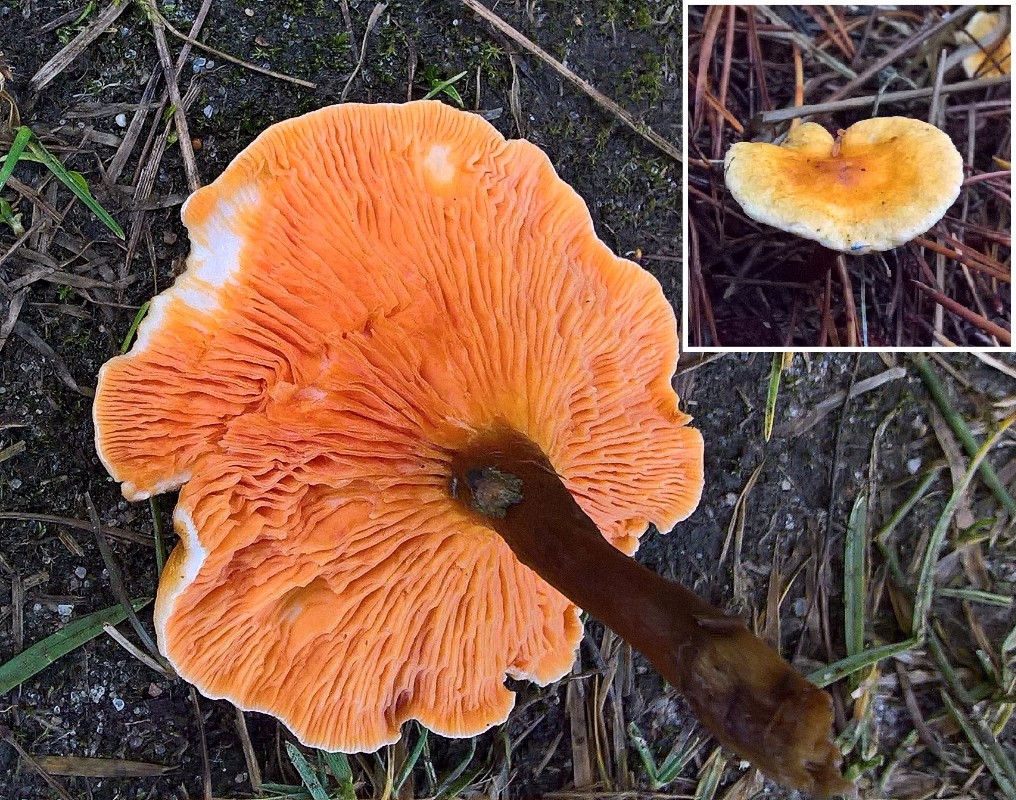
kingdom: Fungi
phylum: Basidiomycota
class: Agaricomycetes
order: Boletales
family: Hygrophoropsidaceae
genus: Hygrophoropsis
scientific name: Hygrophoropsis aurantiaca
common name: almindelig orangekantarel
